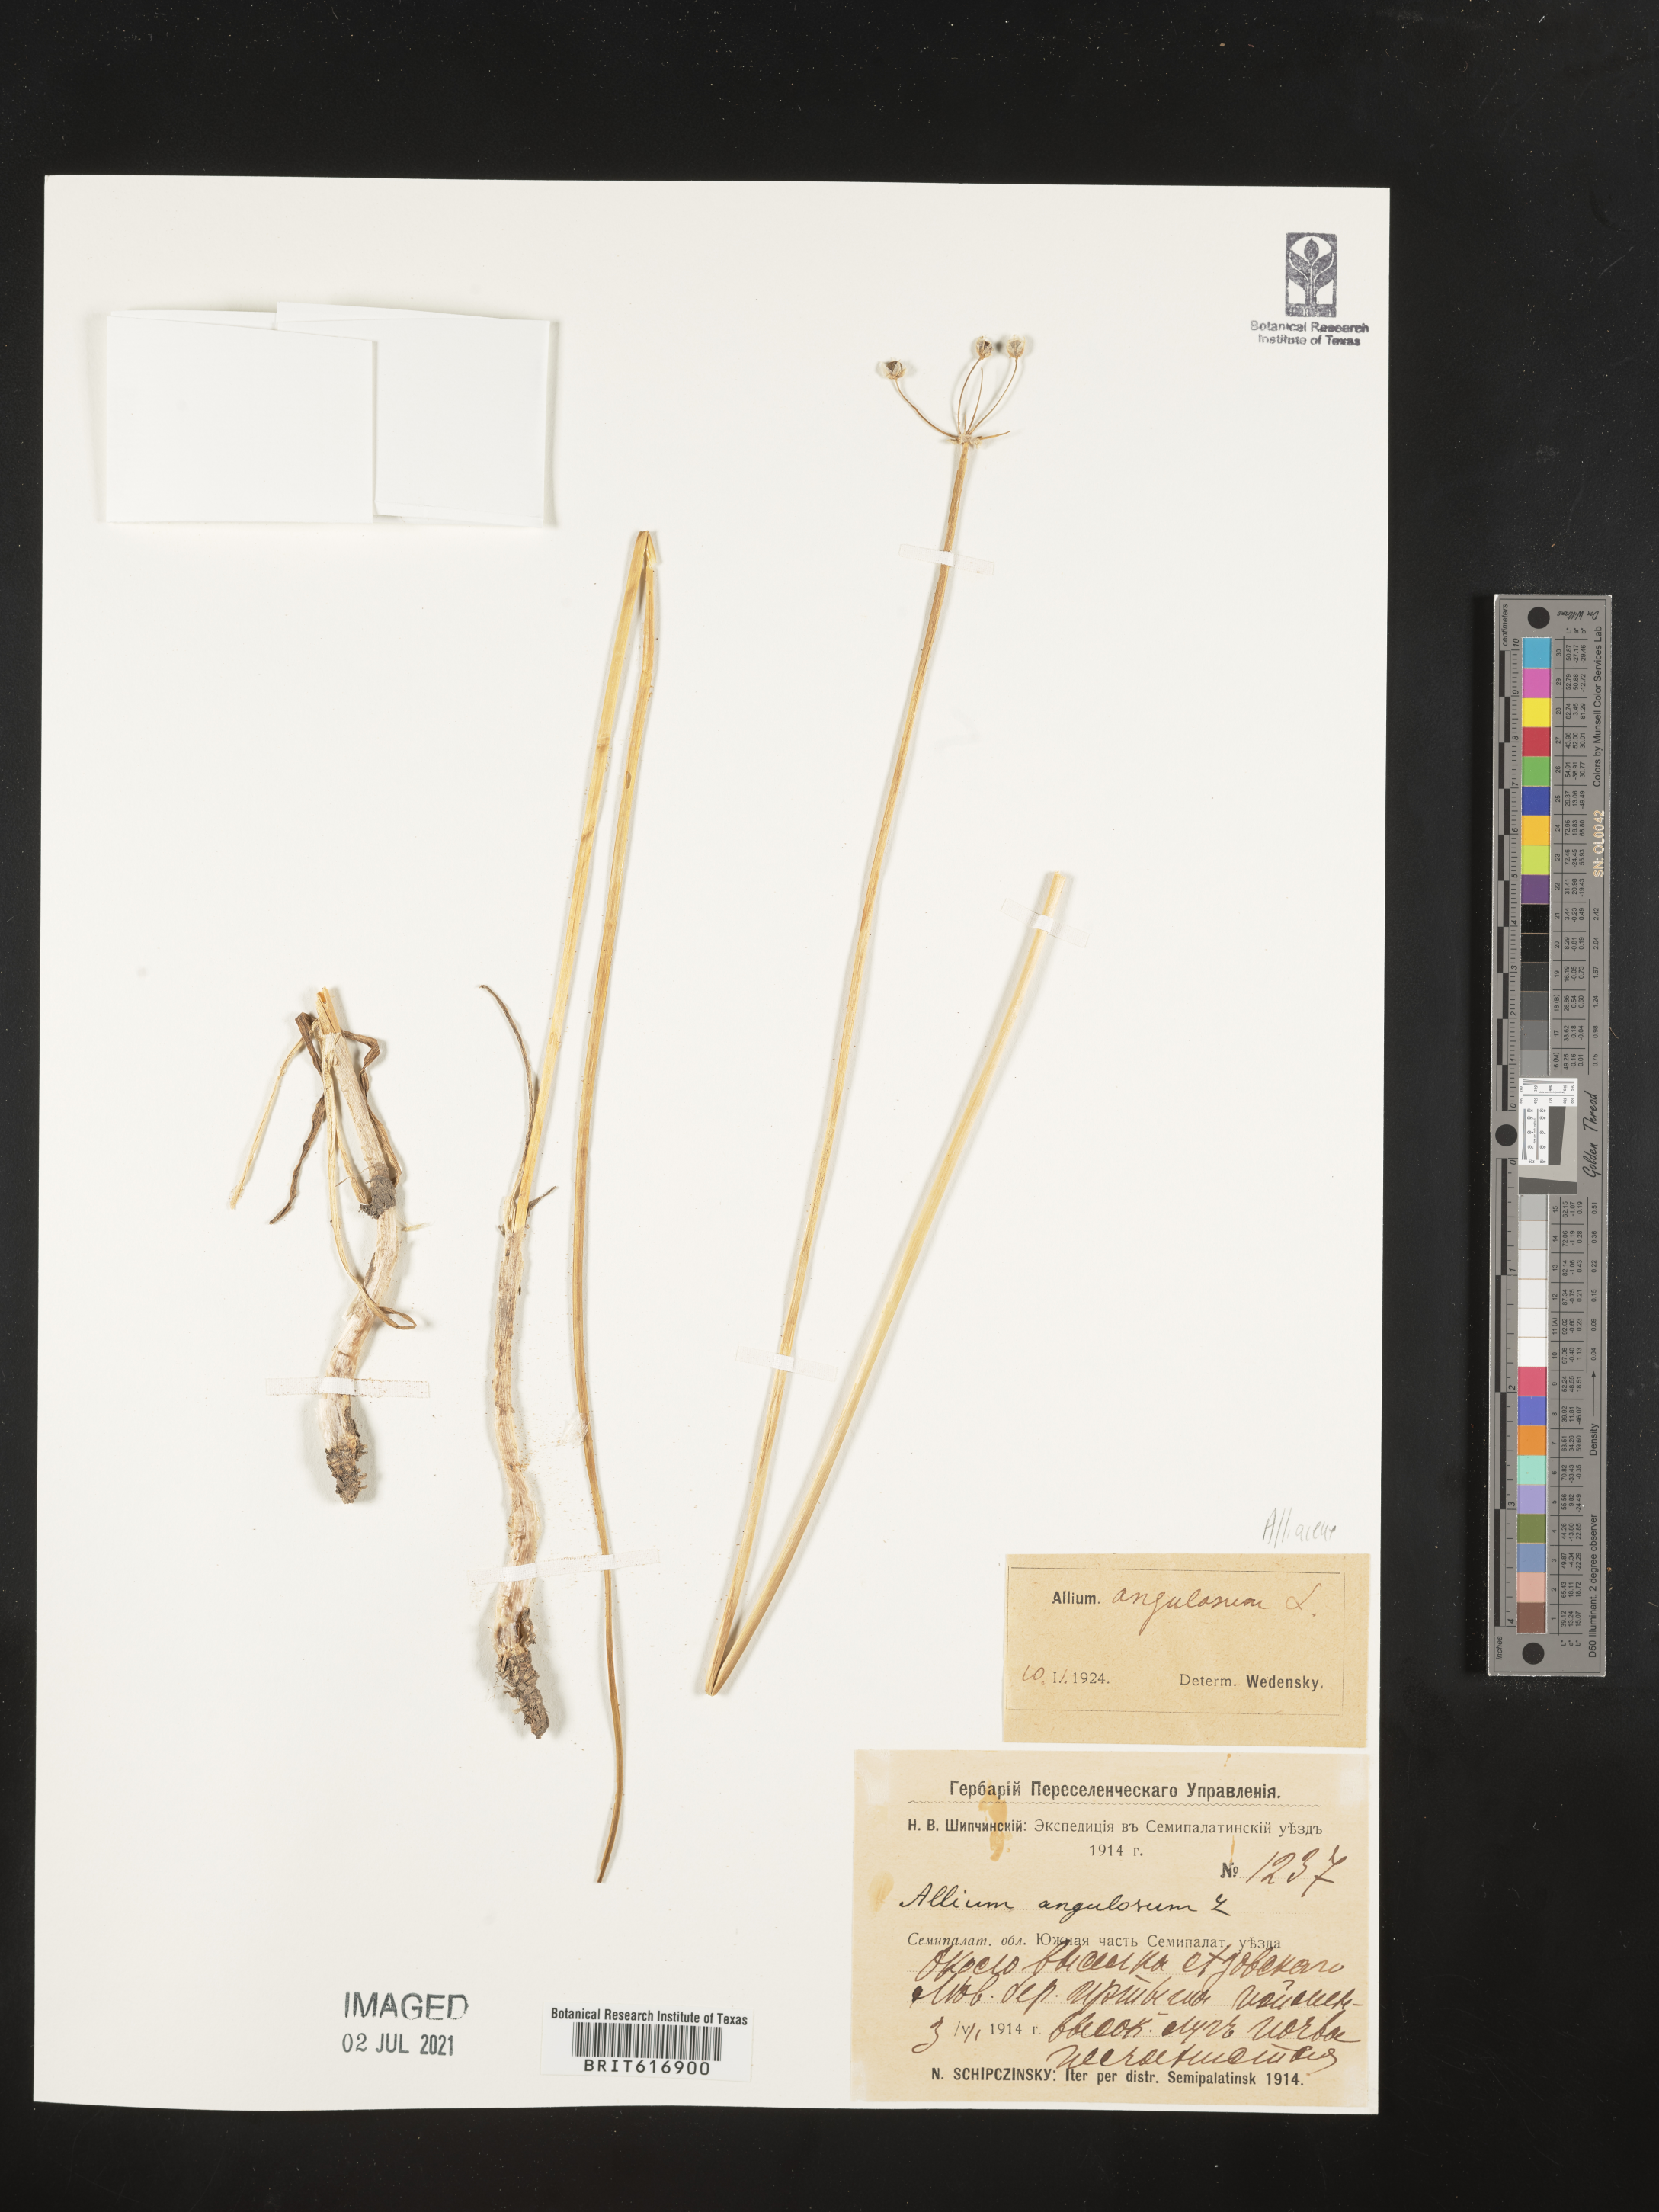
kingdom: Plantae
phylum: Tracheophyta
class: Liliopsida
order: Asparagales
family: Amaryllidaceae
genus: Allium
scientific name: Allium angulosum
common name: Mouse garlic
